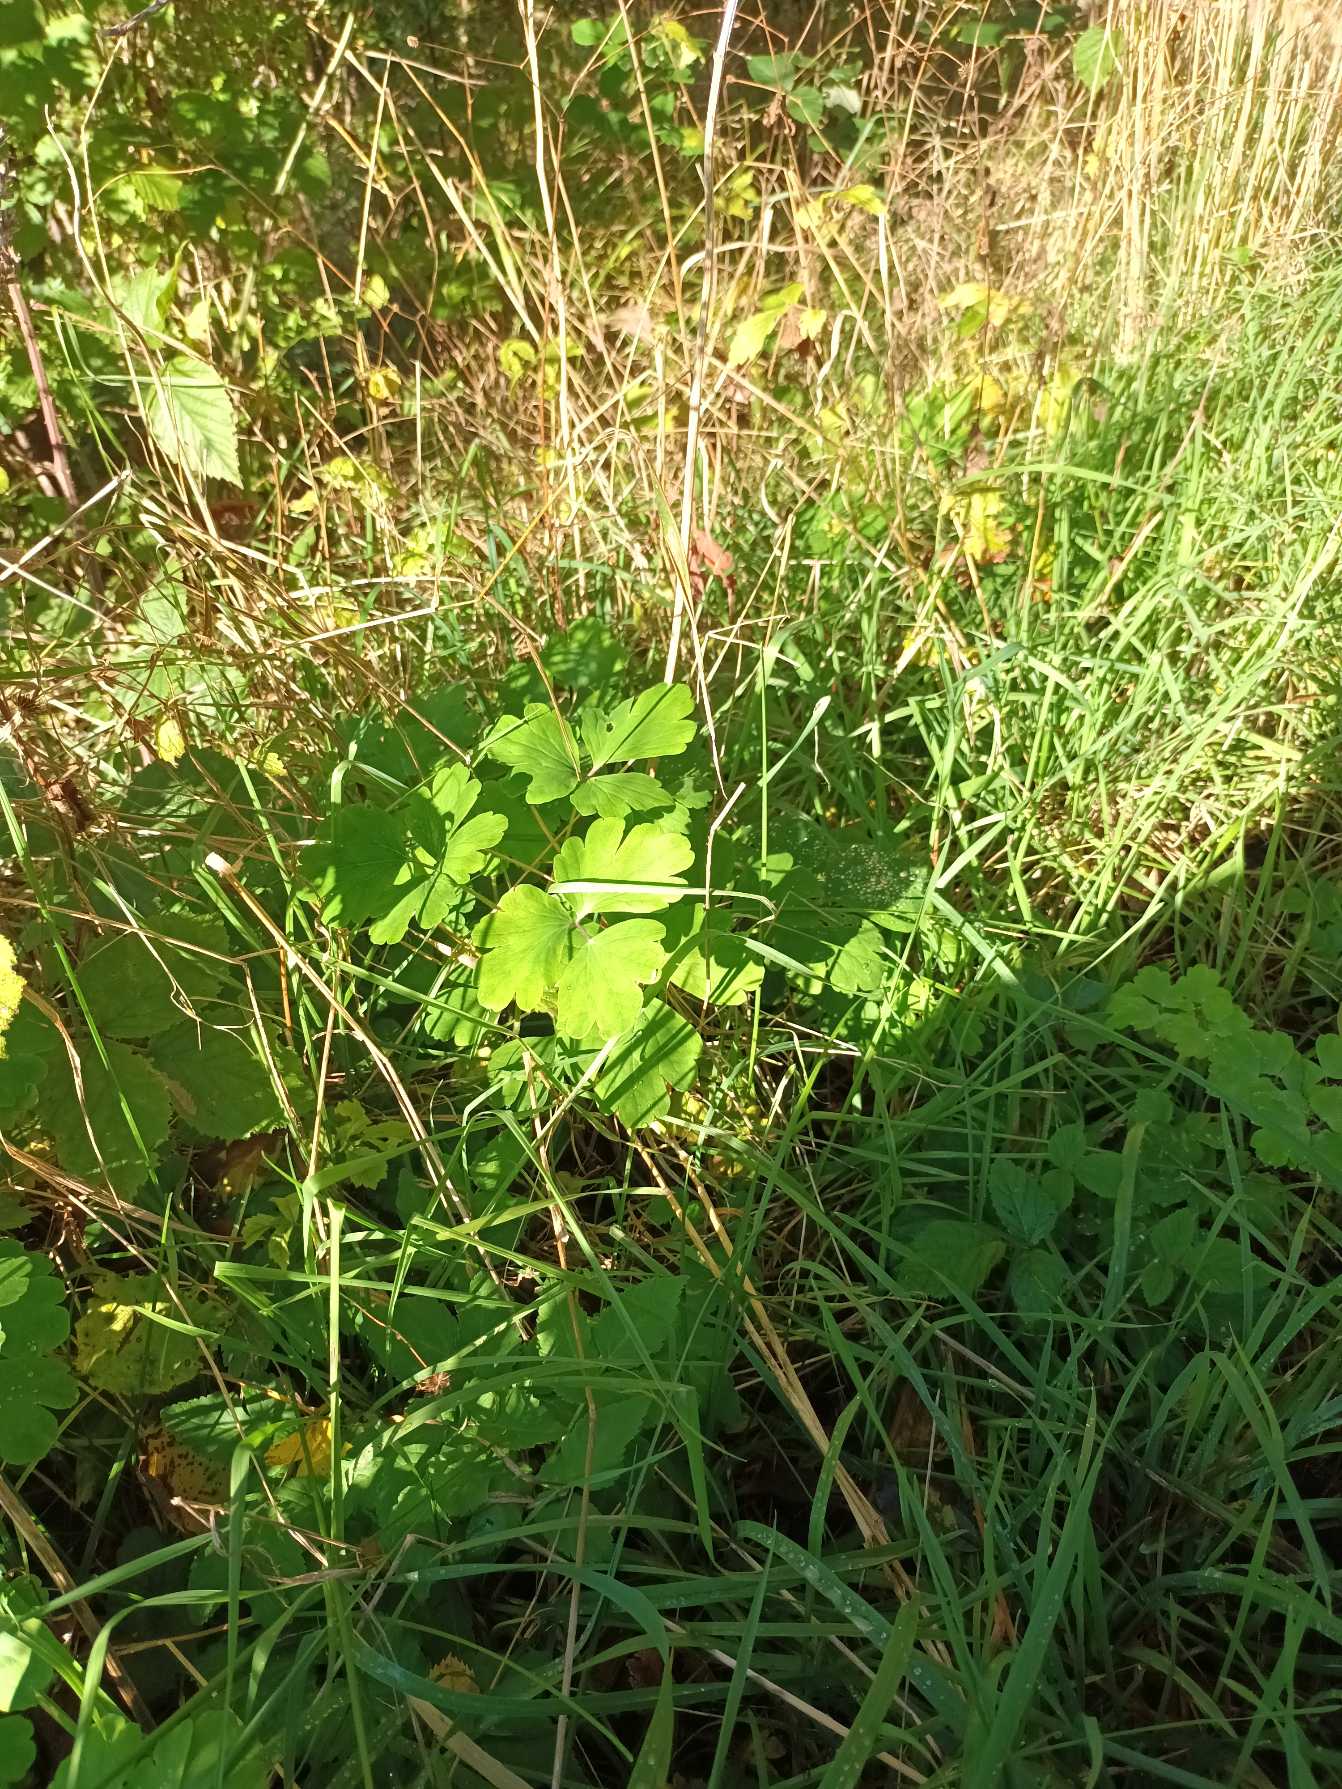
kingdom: Plantae
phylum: Tracheophyta
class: Magnoliopsida
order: Ranunculales
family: Ranunculaceae
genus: Aquilegia
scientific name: Aquilegia vulgaris
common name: Akeleje
